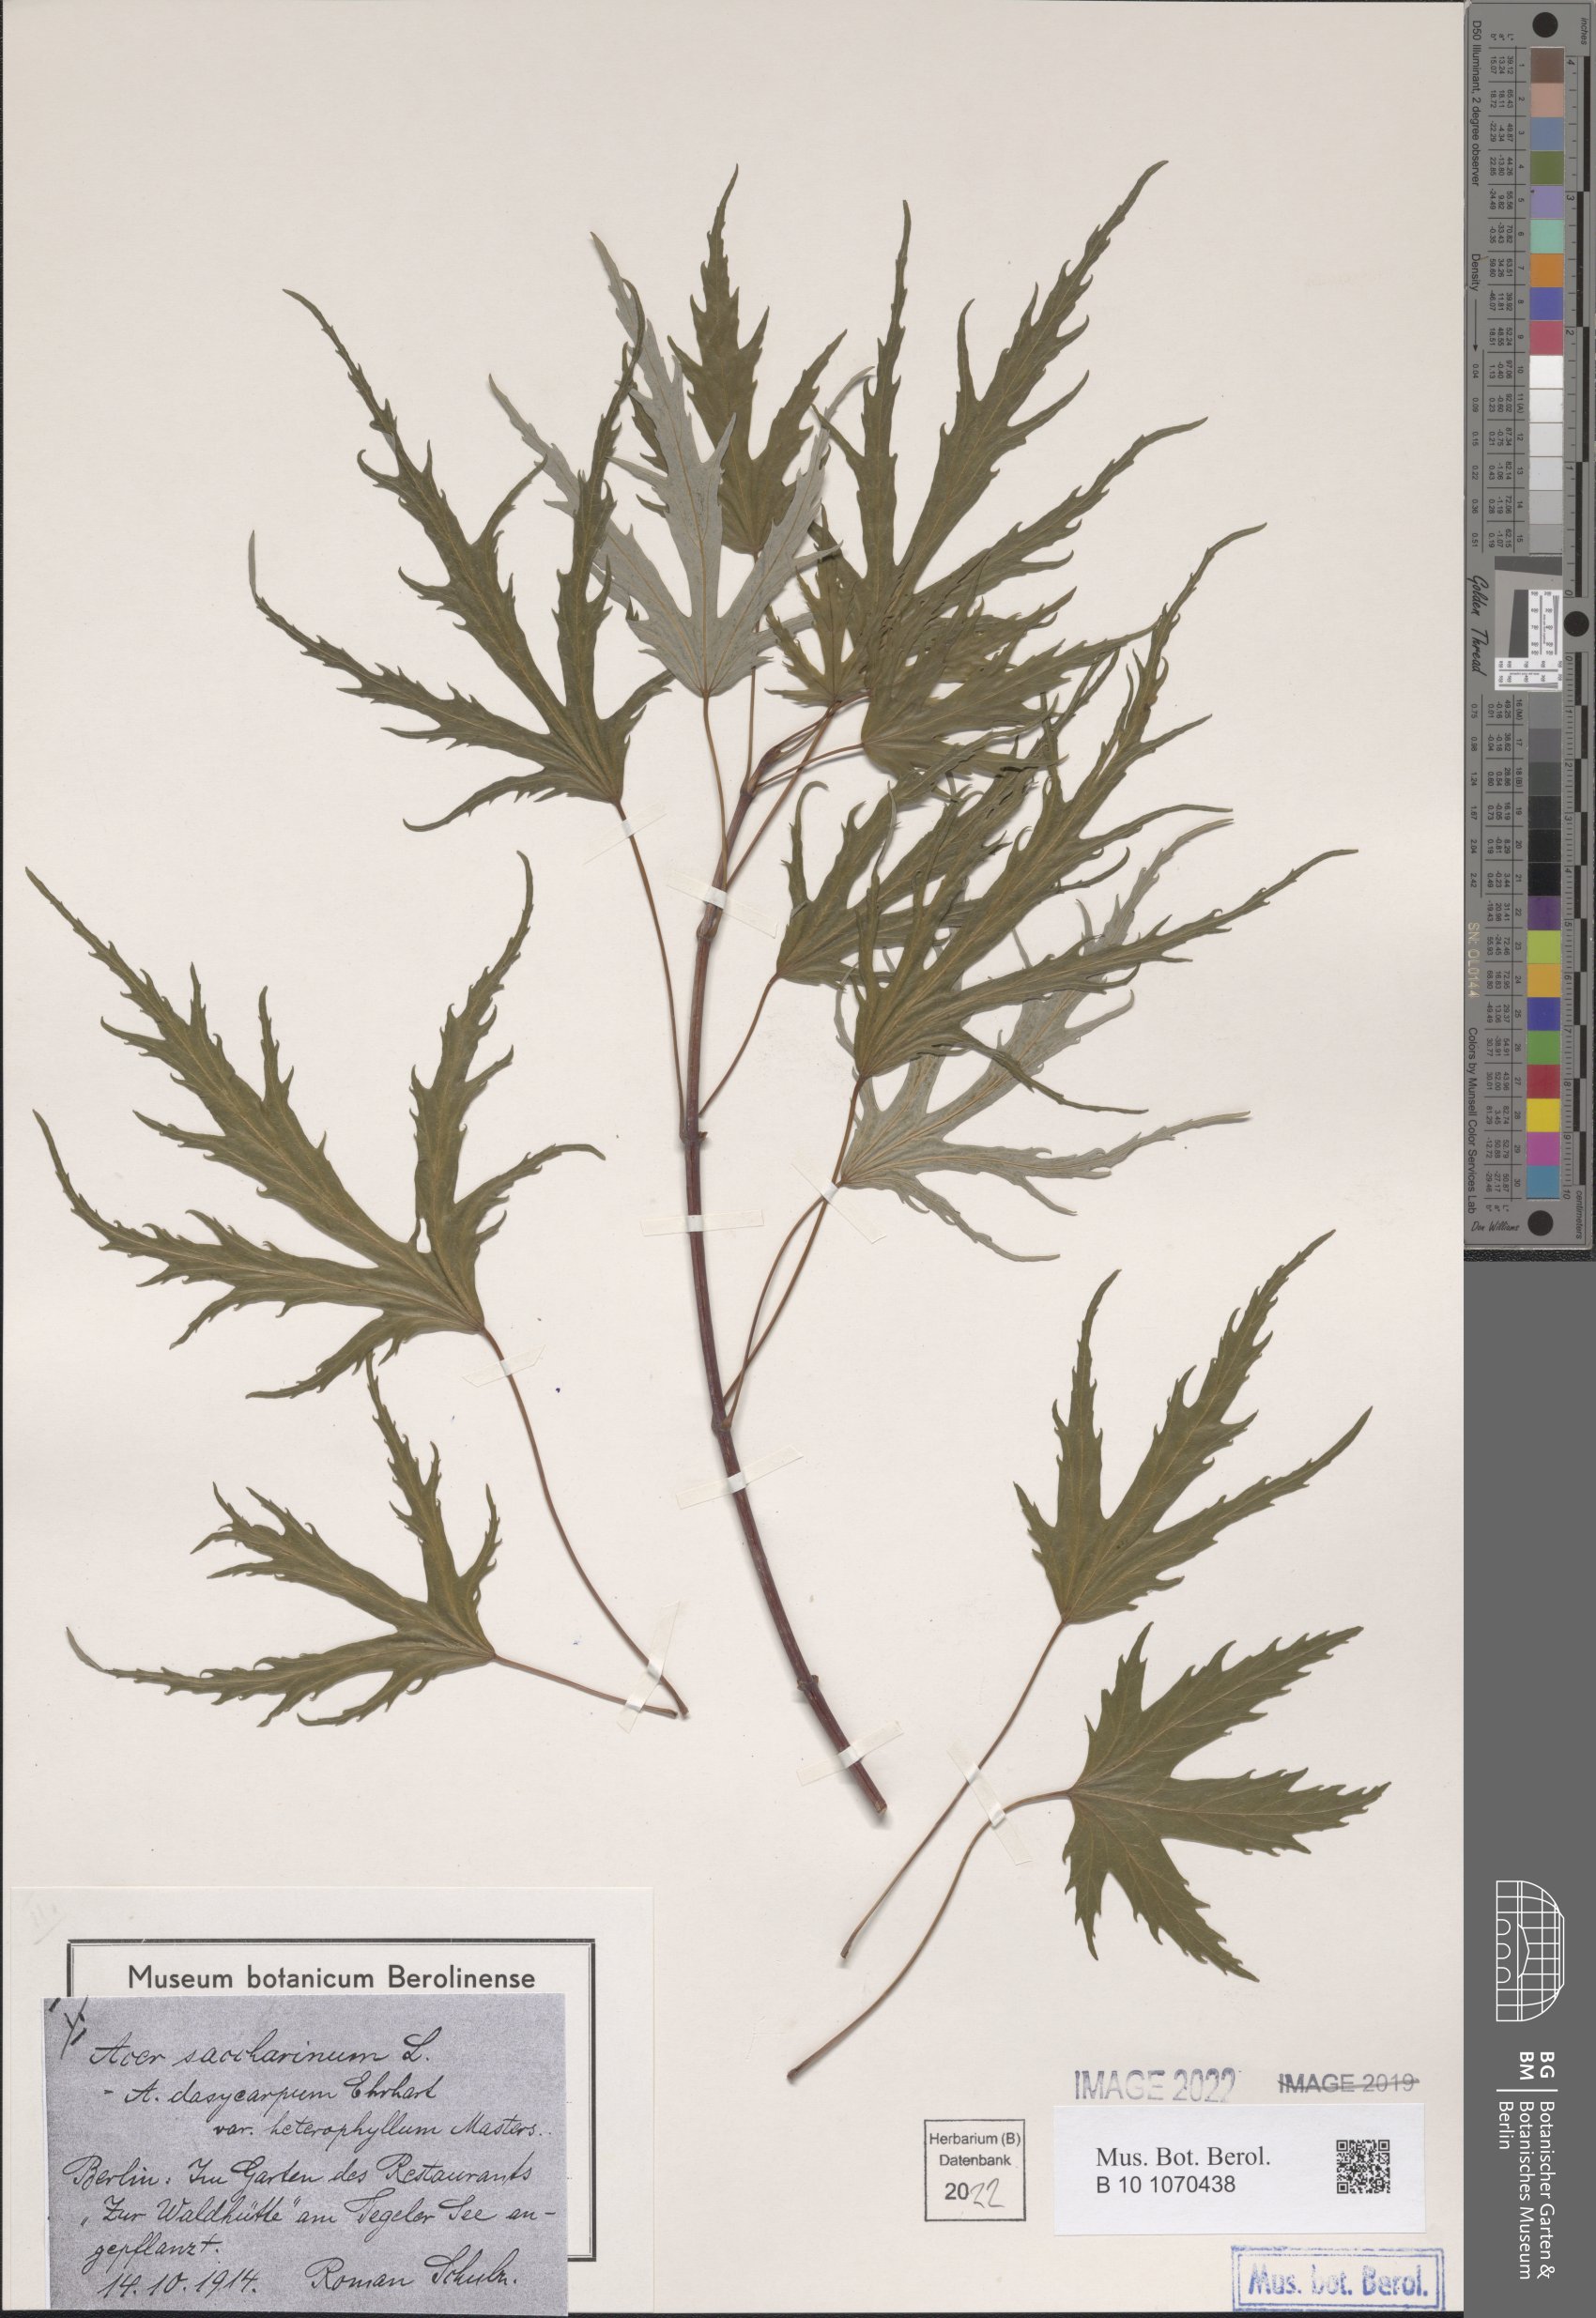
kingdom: Plantae
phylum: Tracheophyta
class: Magnoliopsida
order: Sapindales
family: Sapindaceae
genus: Acer
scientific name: Acer saccharinum
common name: Silver maple
